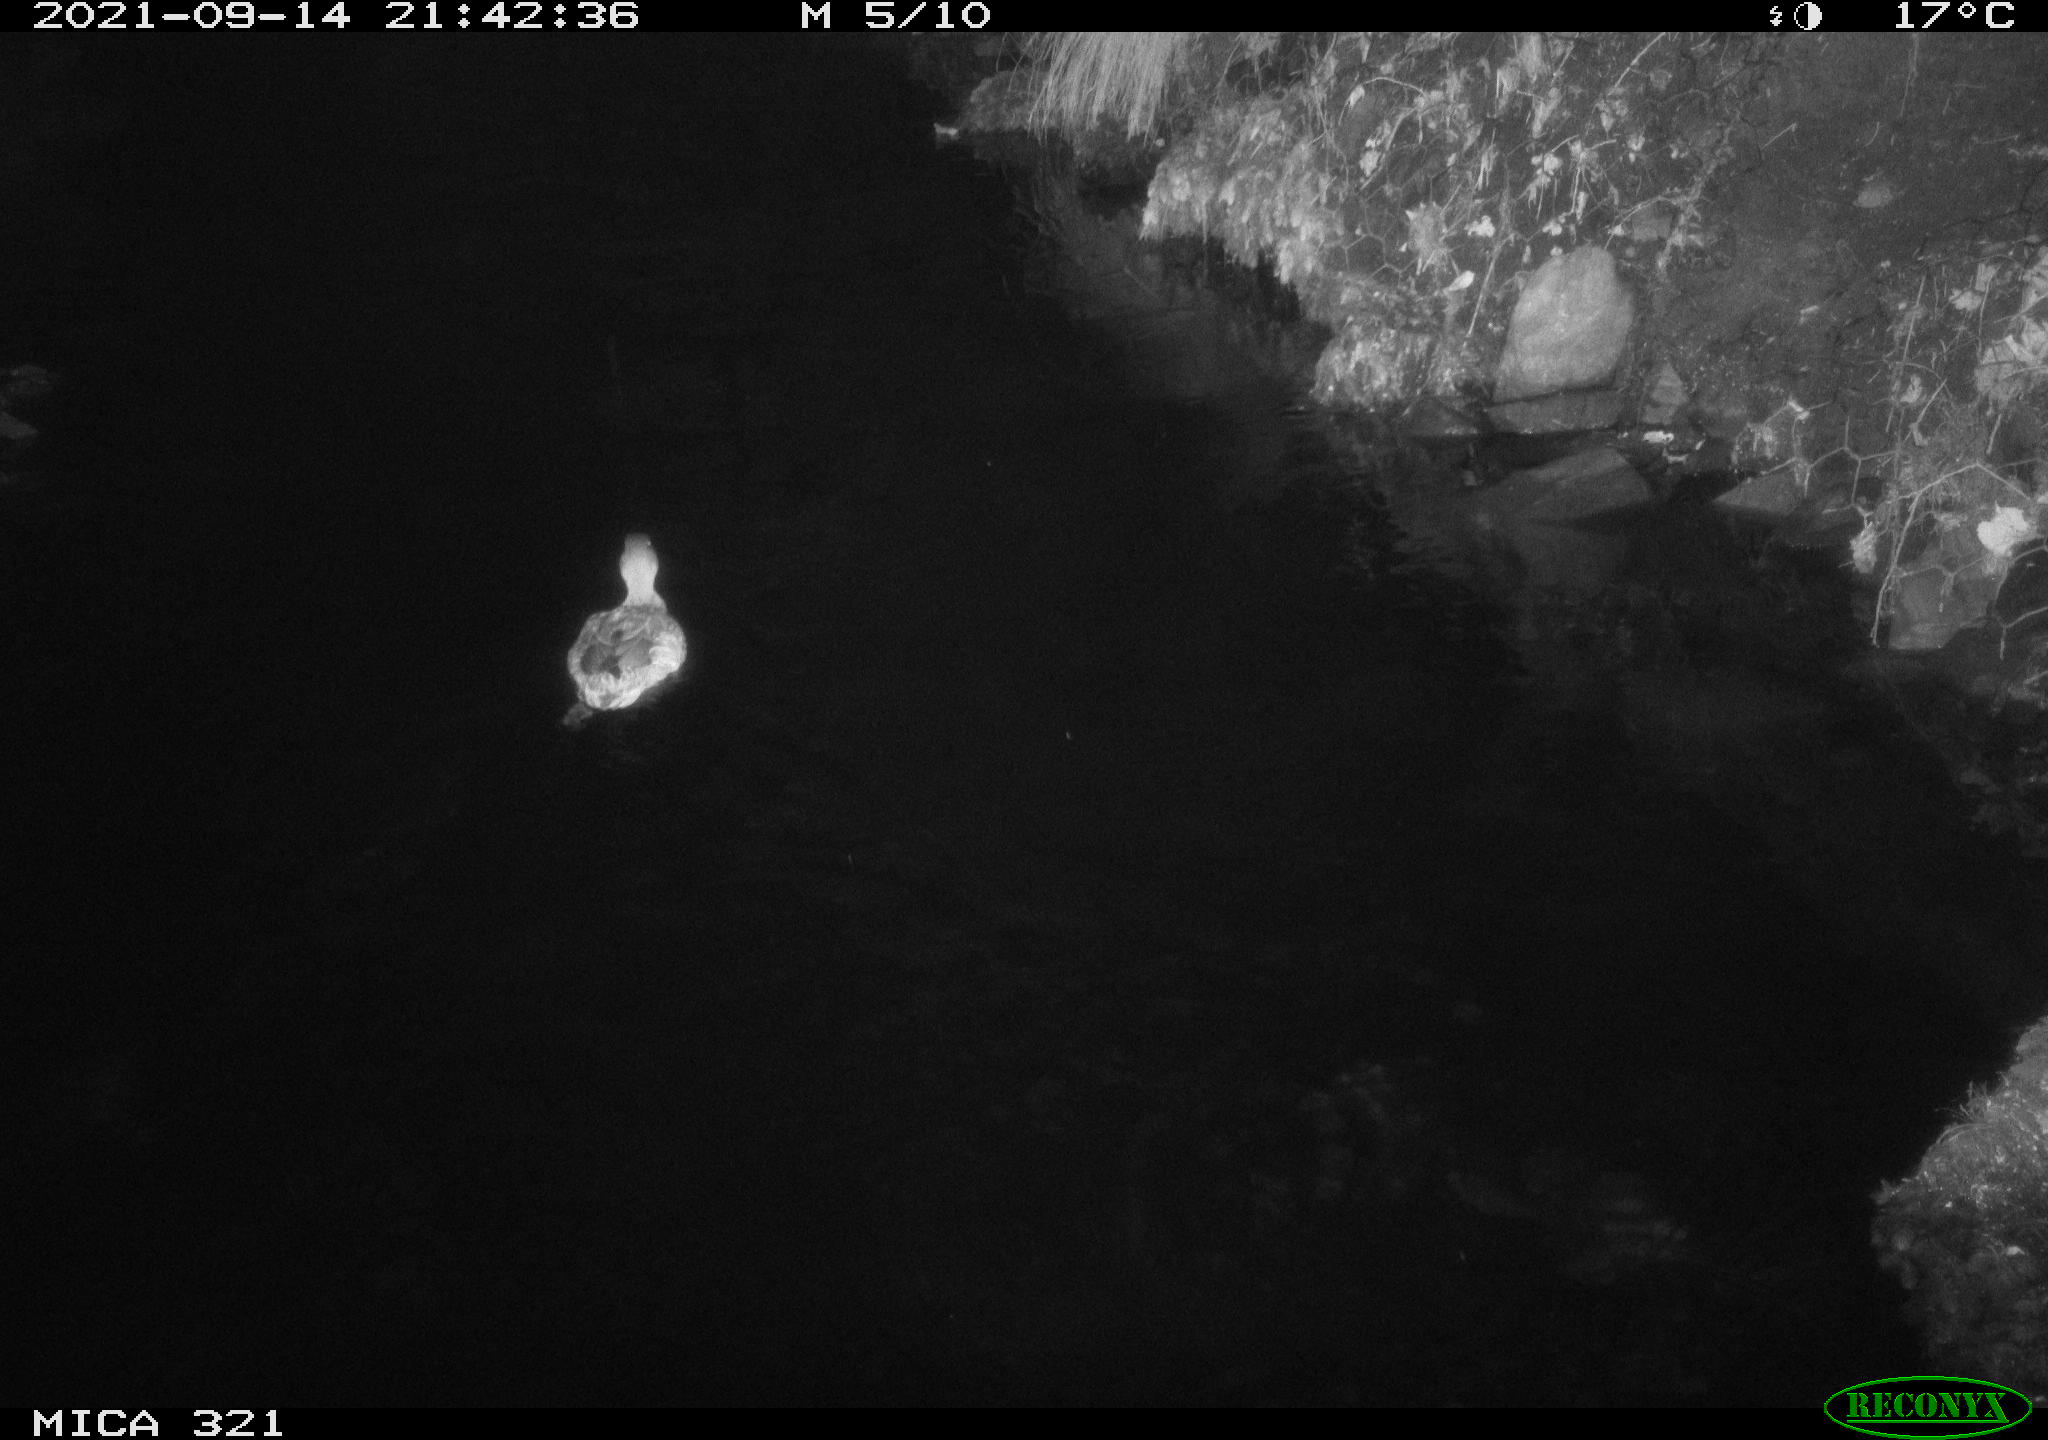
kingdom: Animalia
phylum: Chordata
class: Aves
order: Anseriformes
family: Anatidae
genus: Anas
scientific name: Anas platyrhynchos
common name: Mallard
